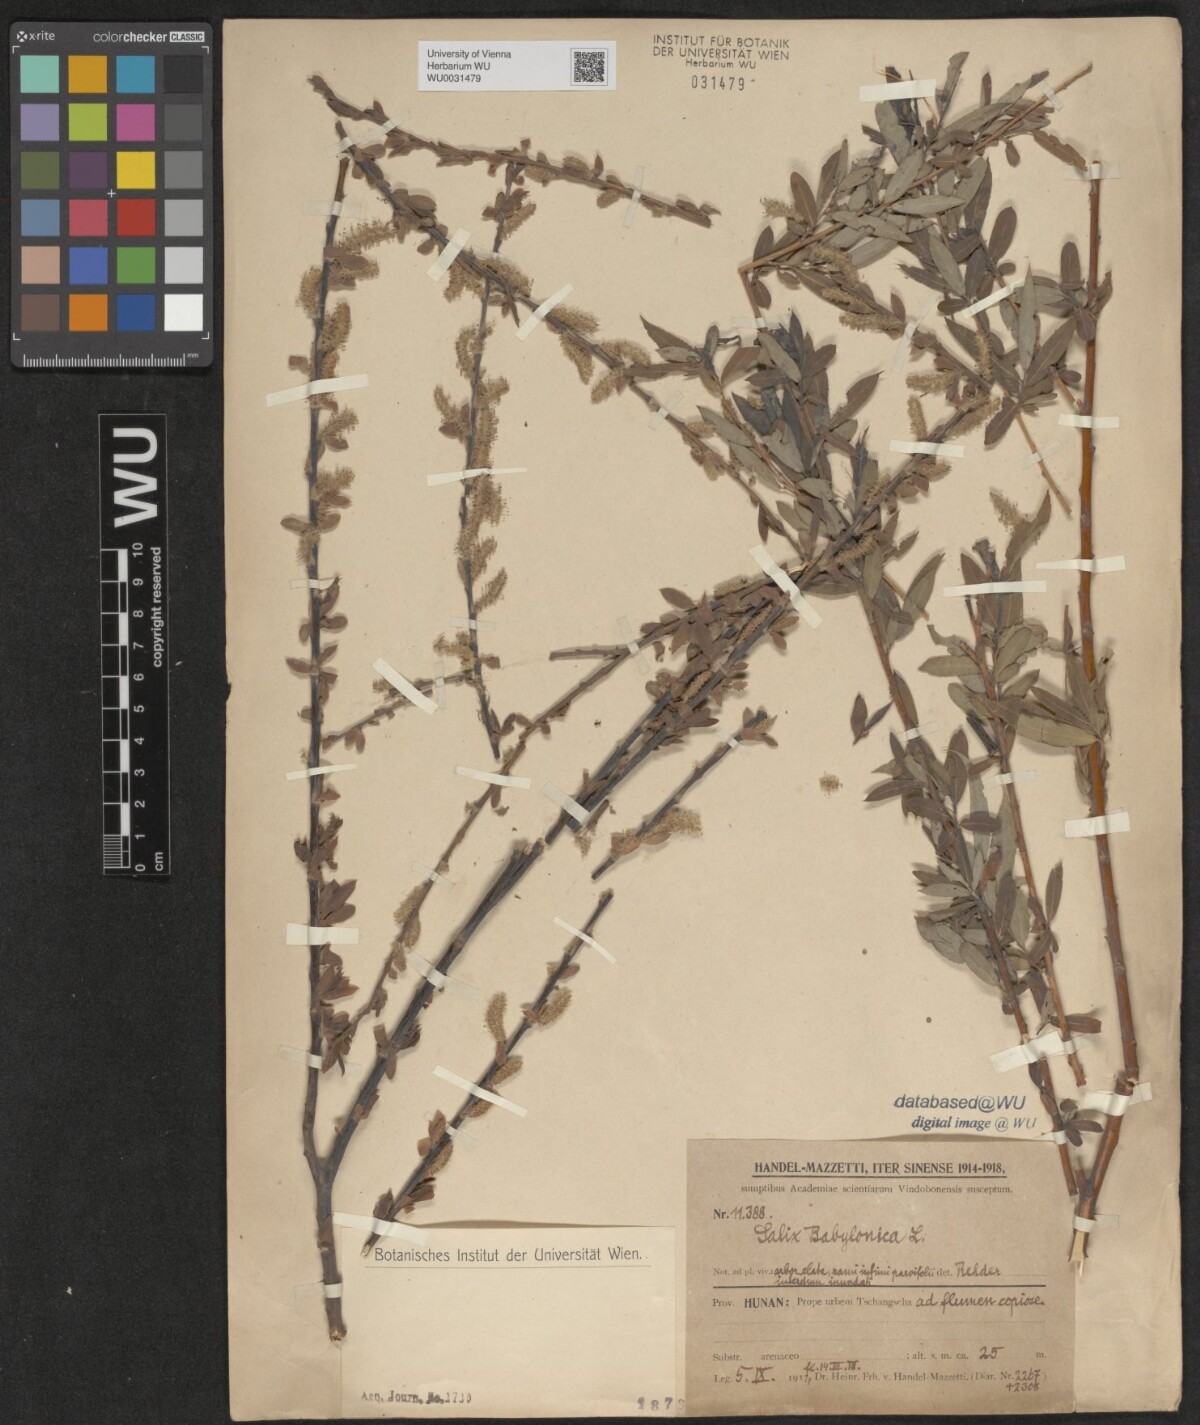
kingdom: Plantae
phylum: Tracheophyta
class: Magnoliopsida
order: Malpighiales
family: Salicaceae
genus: Salix
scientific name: Salix babylonica
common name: Weeping willow
